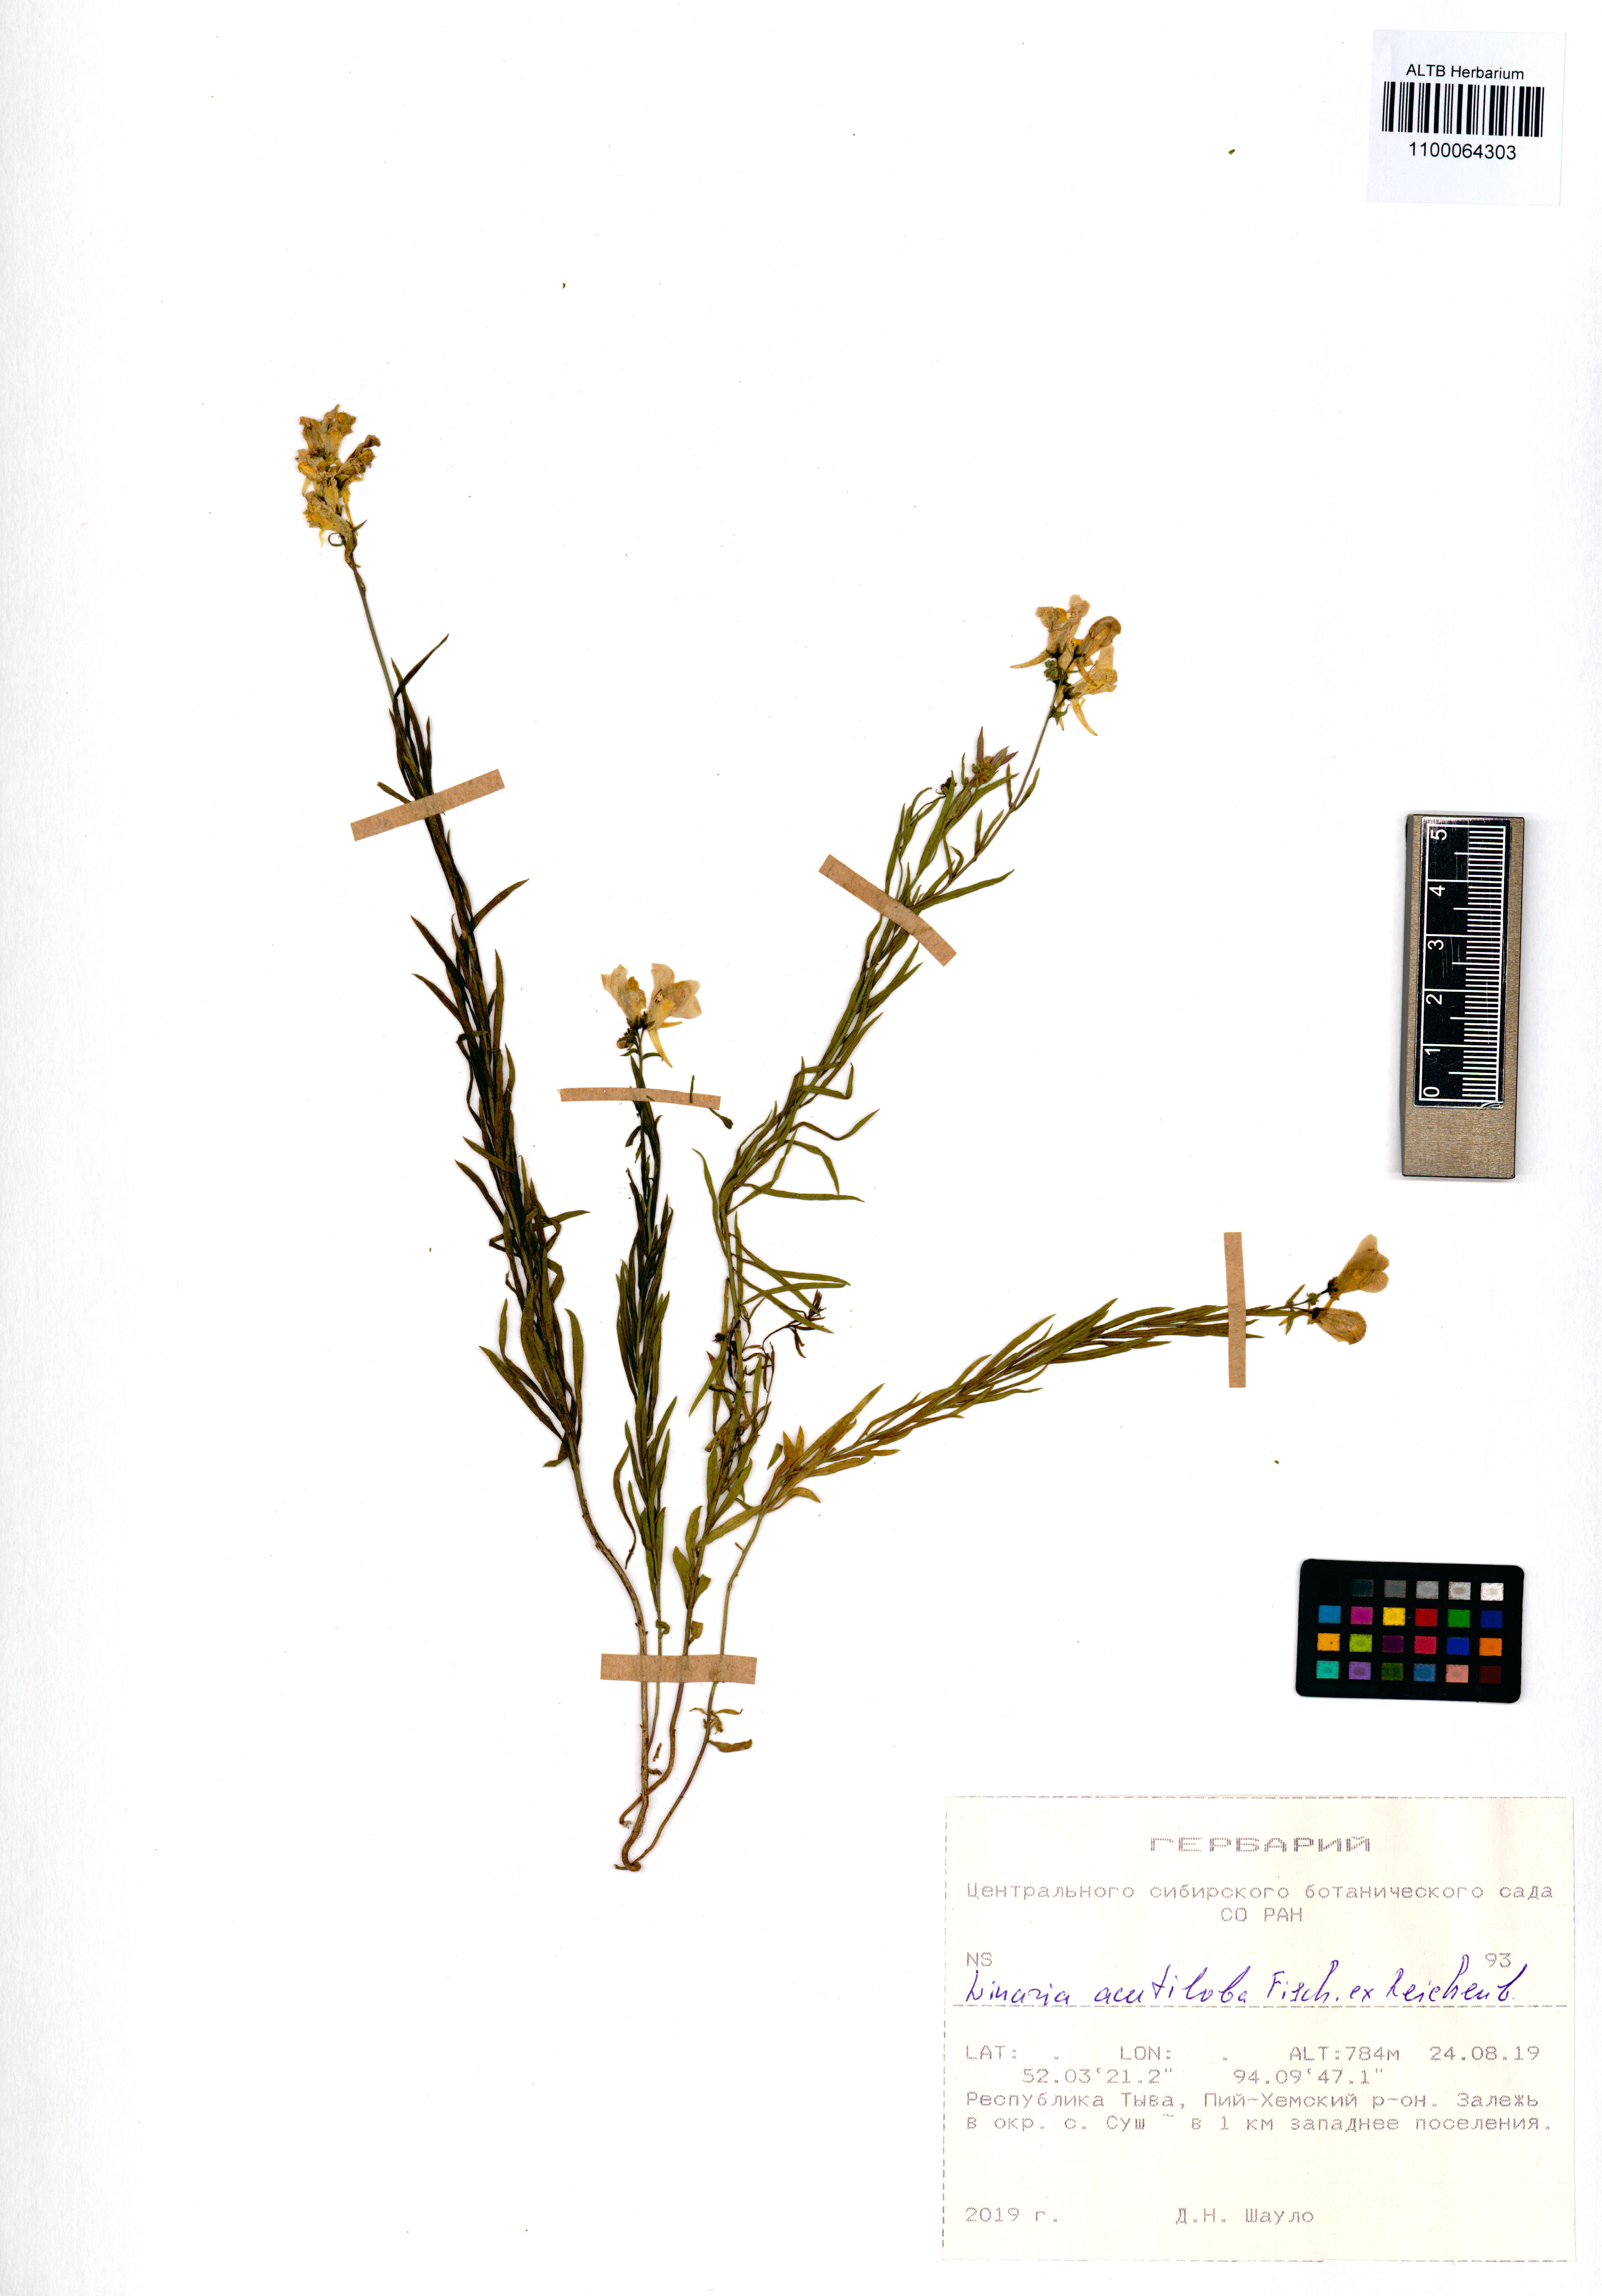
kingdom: Plantae
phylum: Tracheophyta
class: Magnoliopsida
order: Lamiales
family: Plantaginaceae
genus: Linaria
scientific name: Linaria acutiloba
